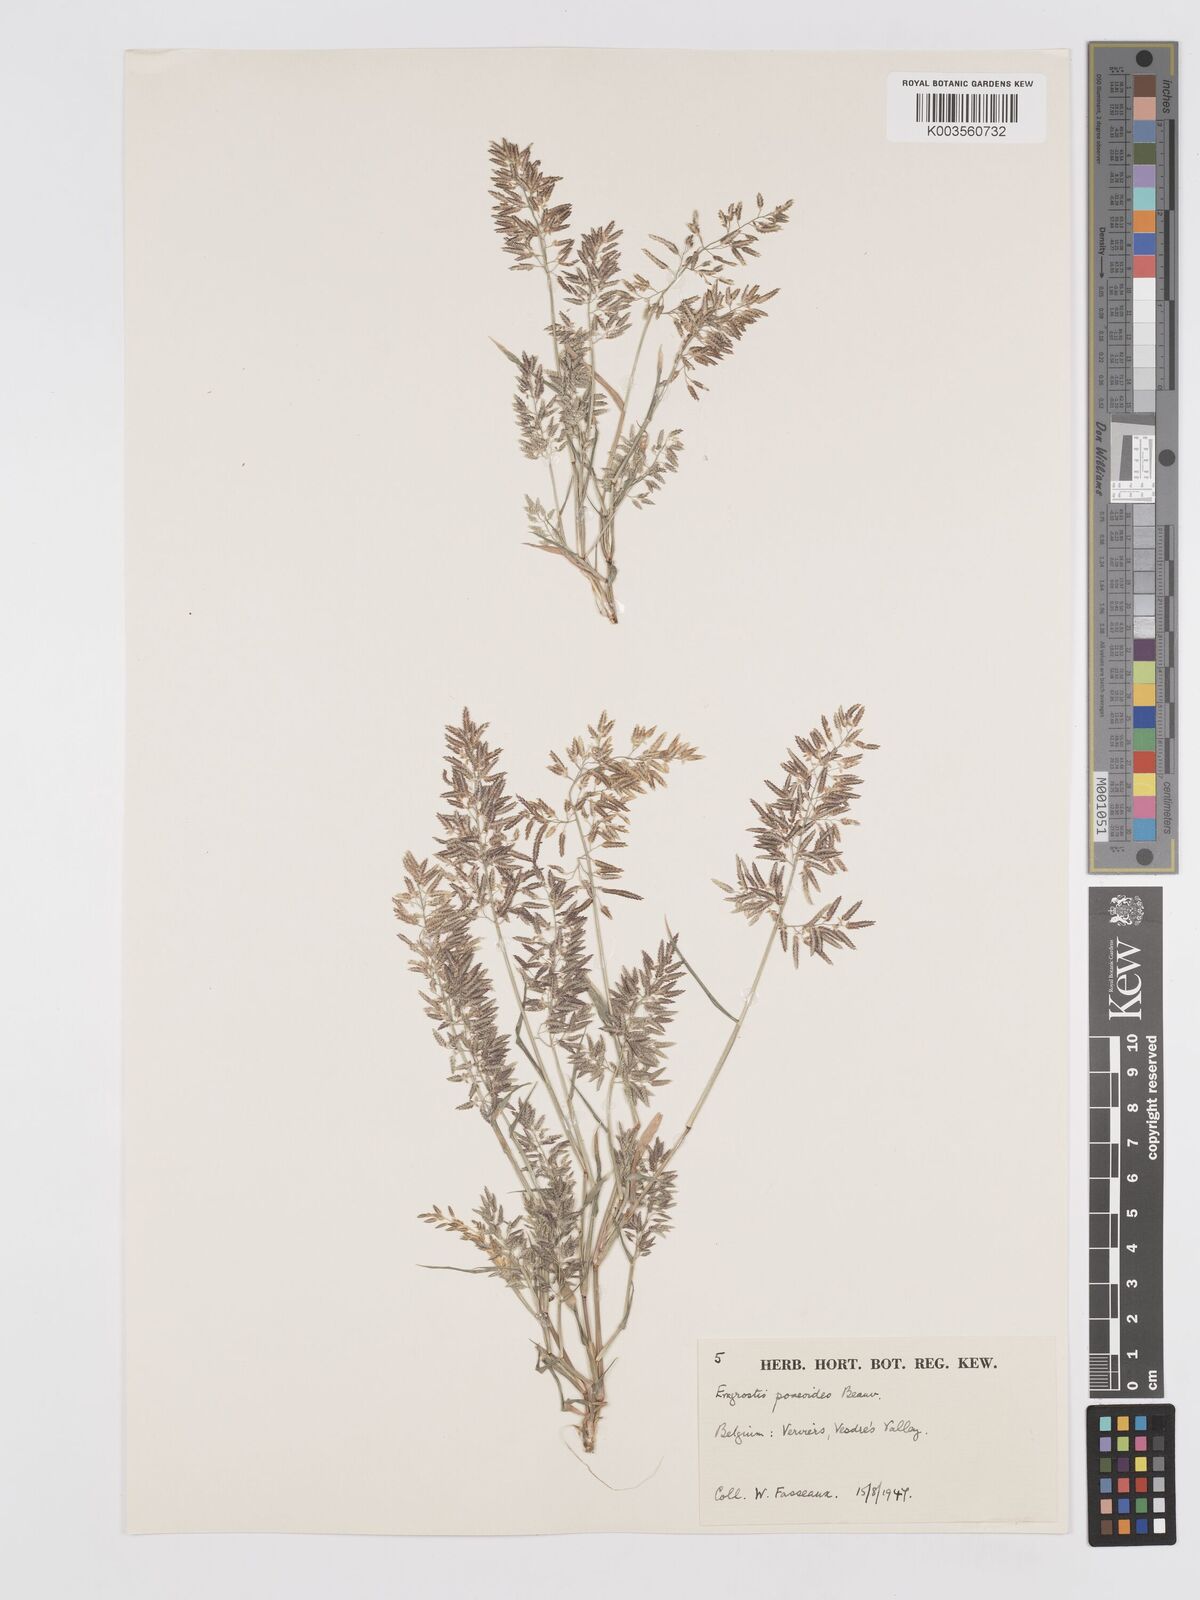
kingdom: Plantae
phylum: Tracheophyta
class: Liliopsida
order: Poales
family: Poaceae
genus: Eragrostis
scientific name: Eragrostis minor
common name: Small love-grass
